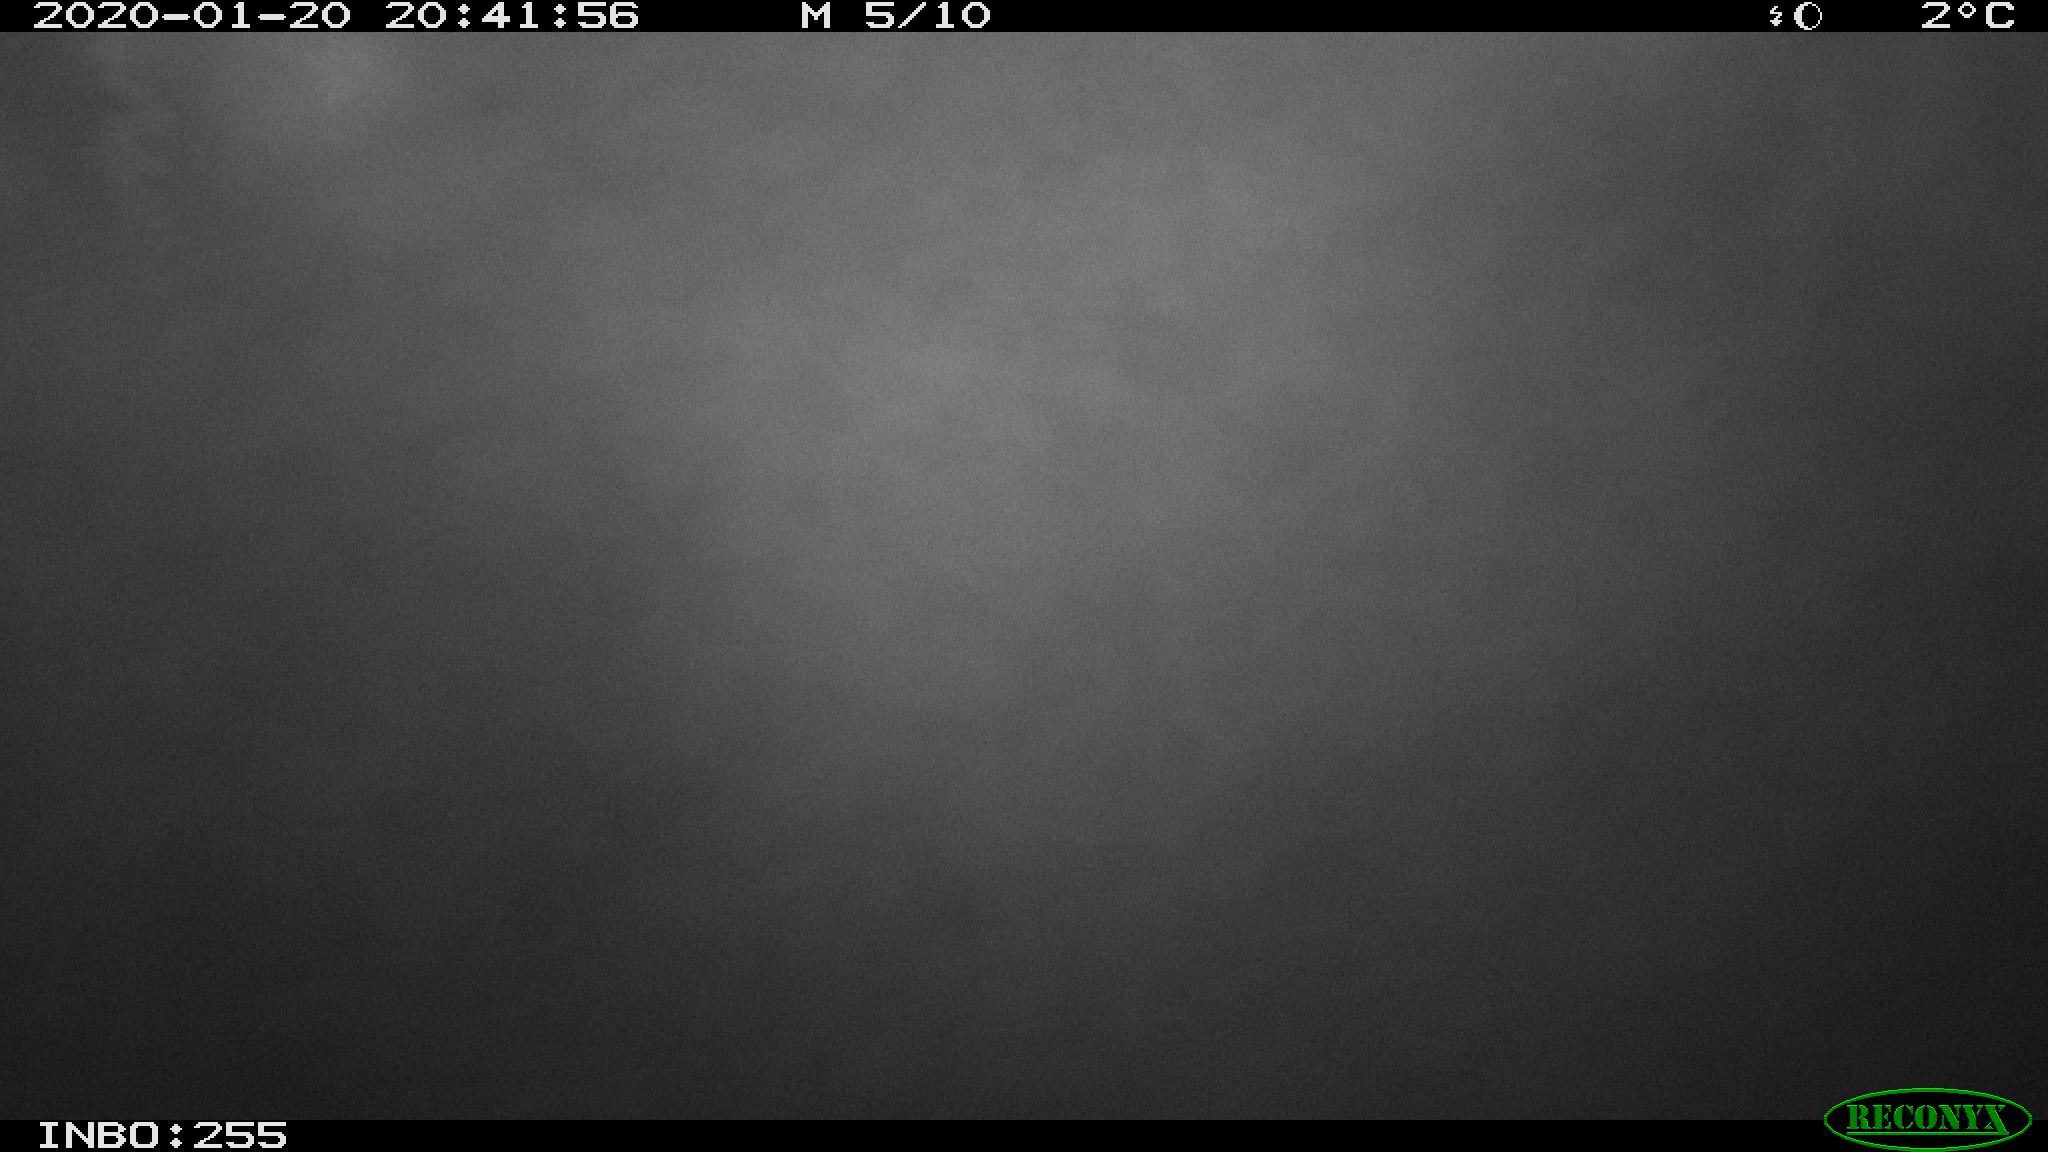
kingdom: Animalia
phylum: Chordata
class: Mammalia
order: Rodentia
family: Cricetidae
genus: Ondatra
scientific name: Ondatra zibethicus
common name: Muskrat
